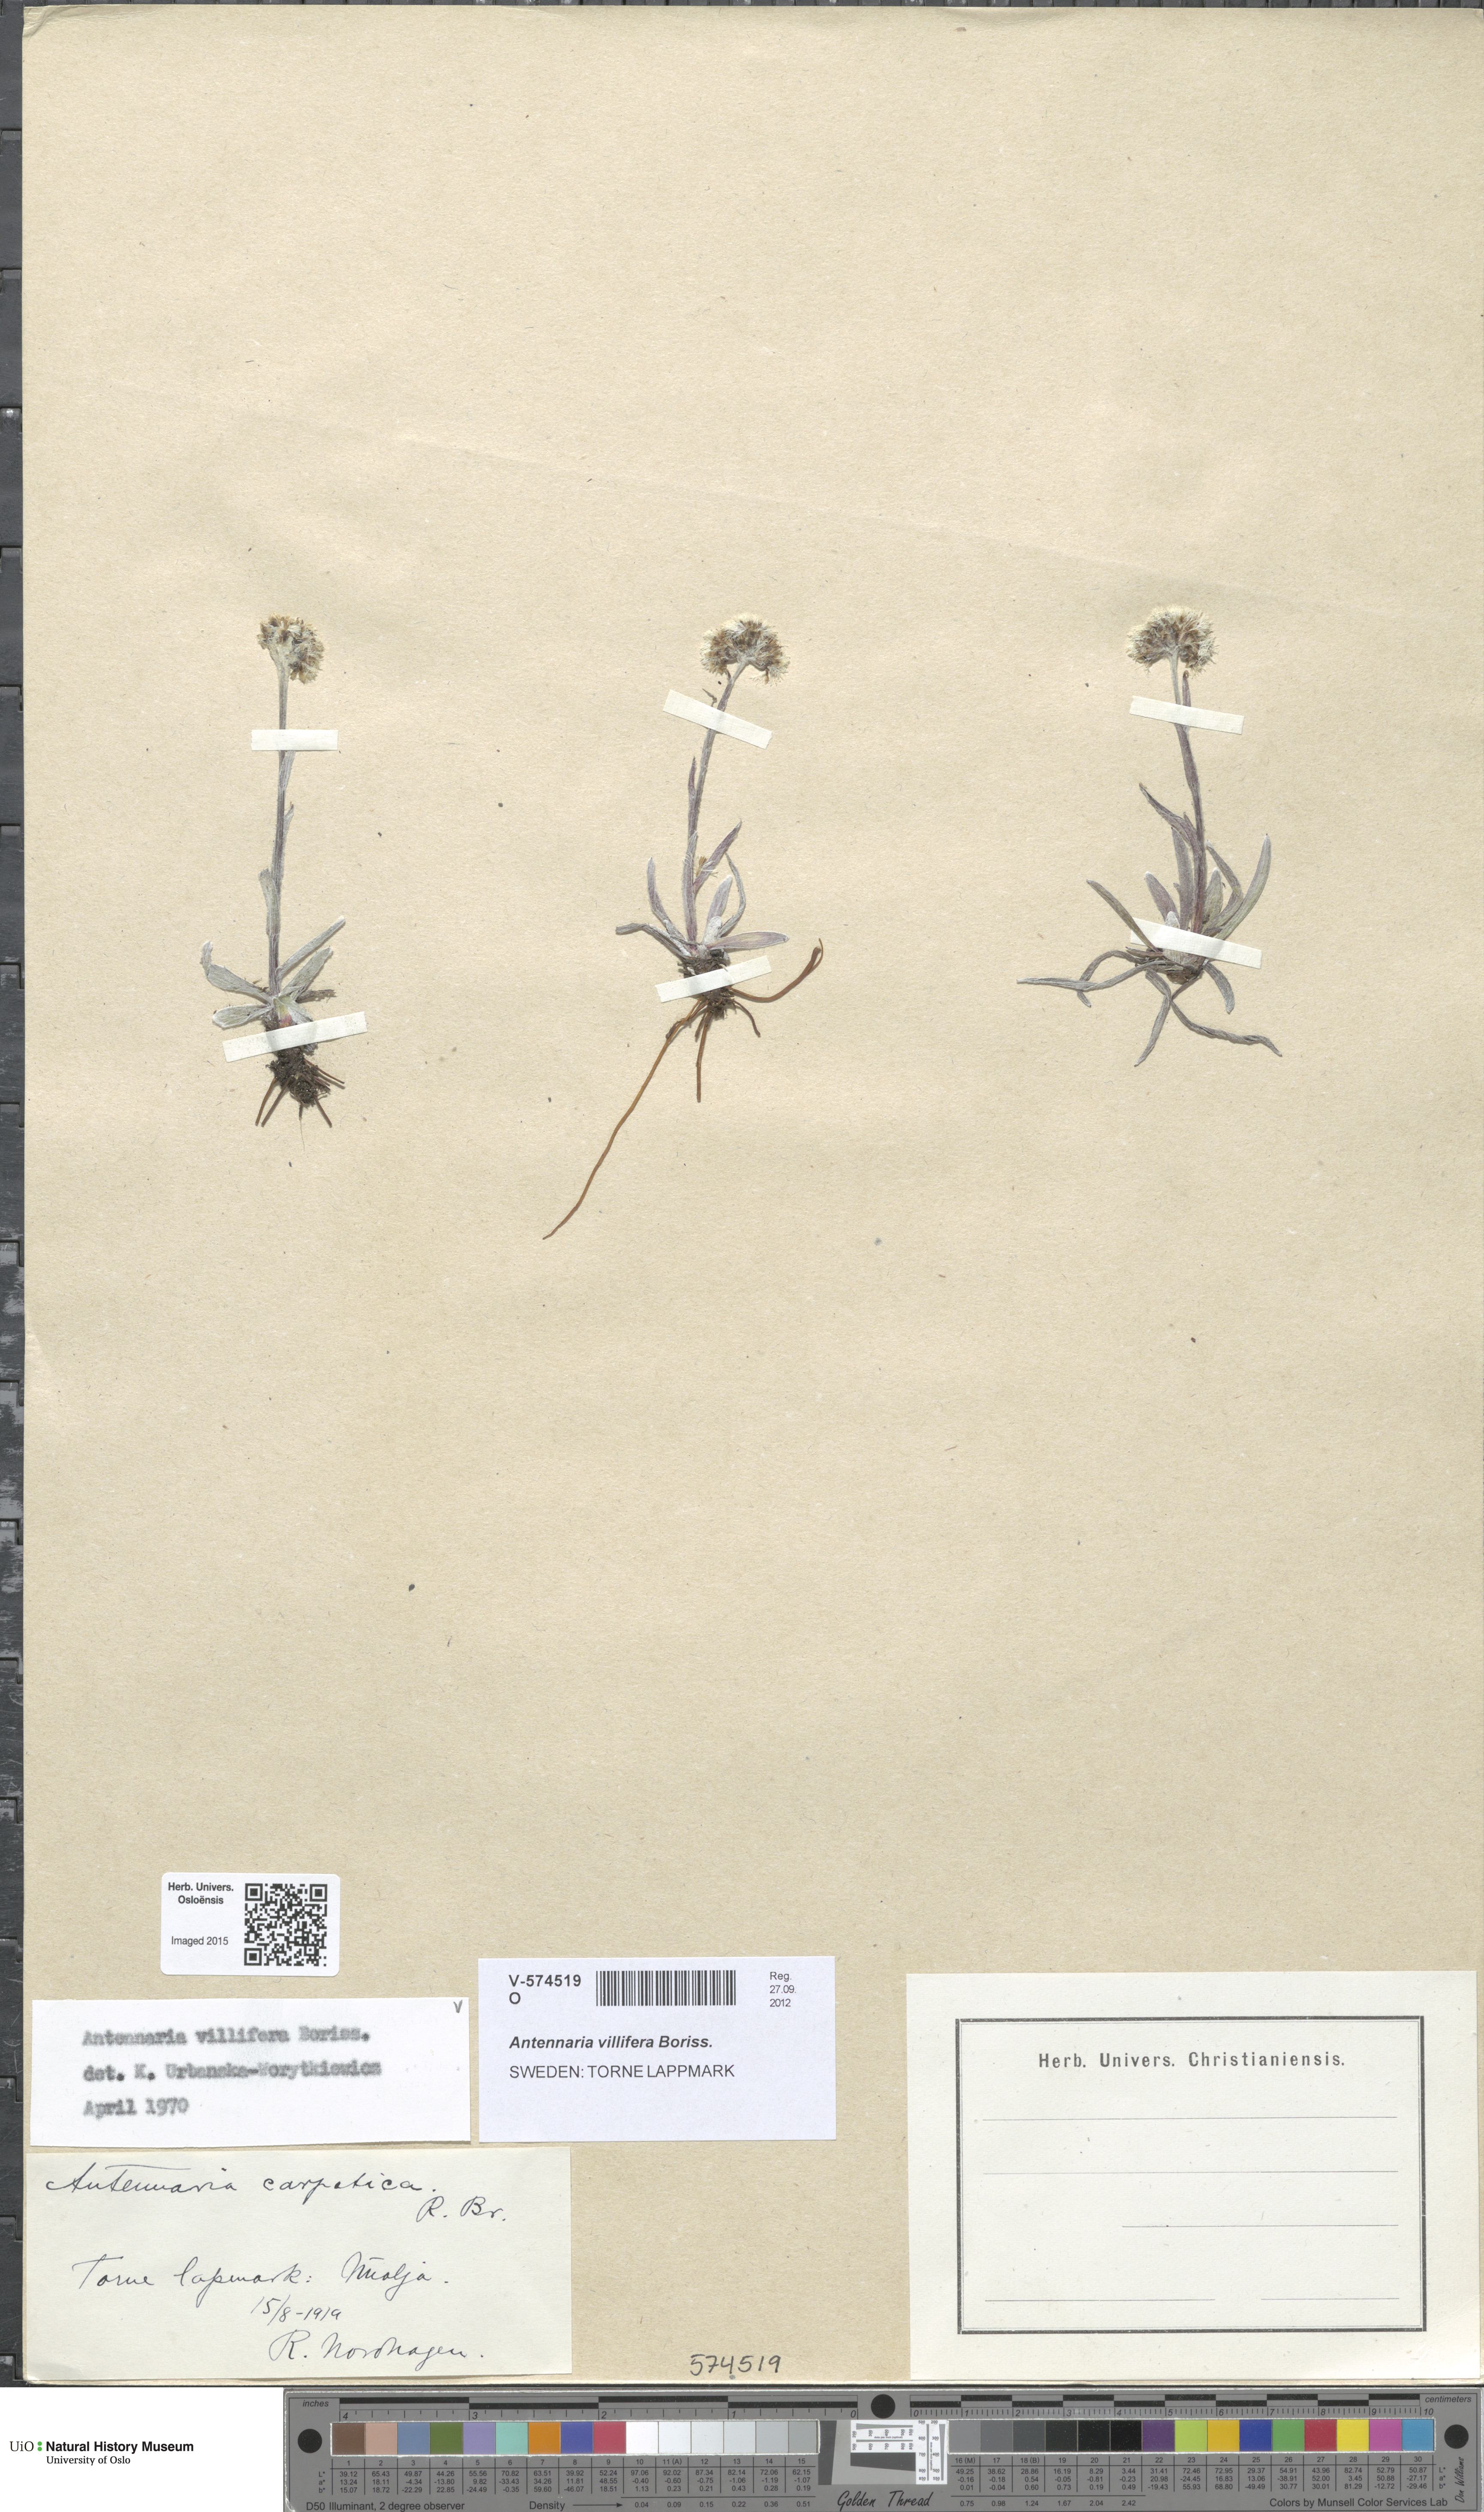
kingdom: Plantae
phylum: Tracheophyta
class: Magnoliopsida
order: Asterales
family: Asteraceae
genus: Antennaria
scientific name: Antennaria lanata
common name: Woolly pussytoes
